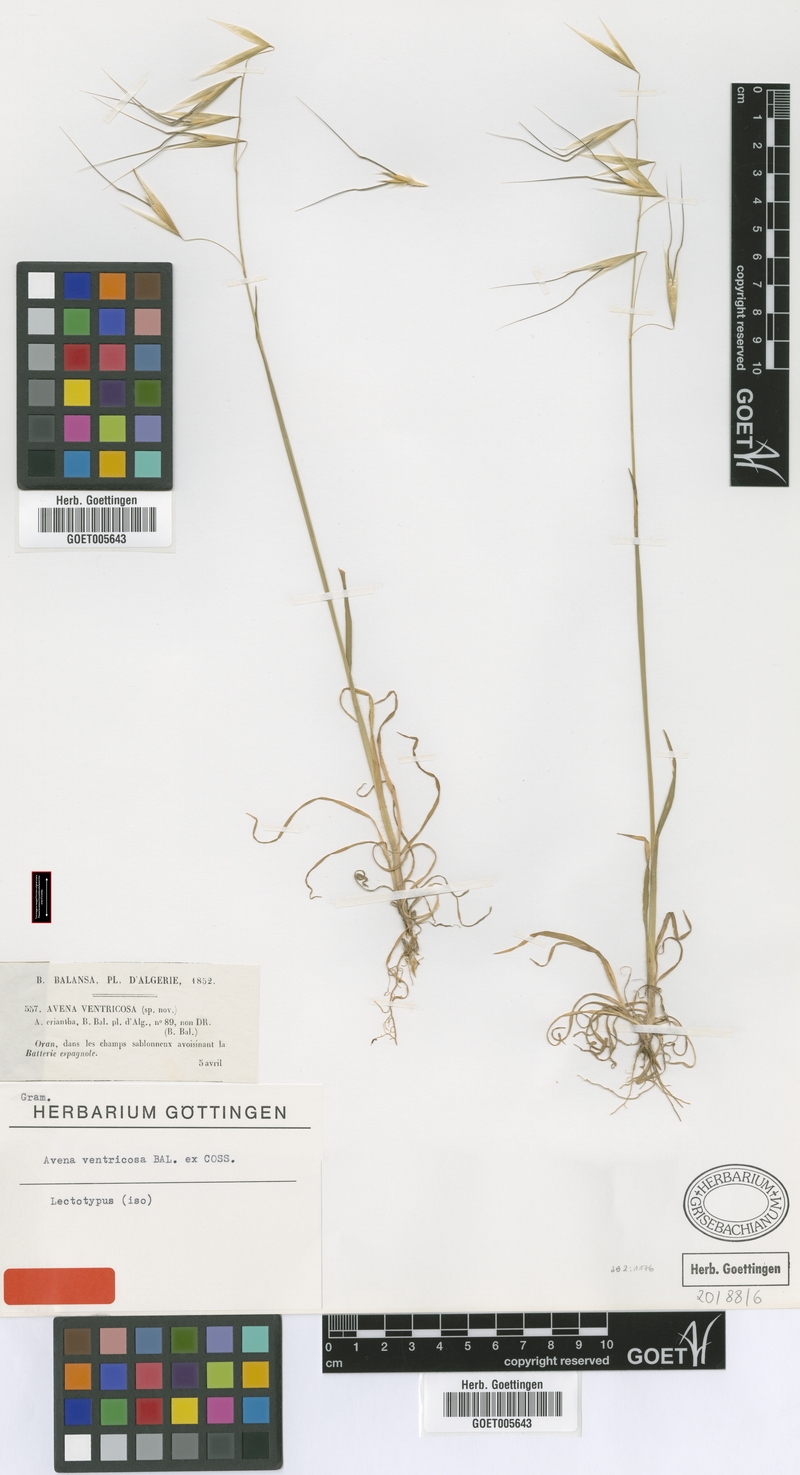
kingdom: Plantae
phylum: Tracheophyta
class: Liliopsida
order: Poales
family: Poaceae
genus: Avena
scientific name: Avena ventricosa
